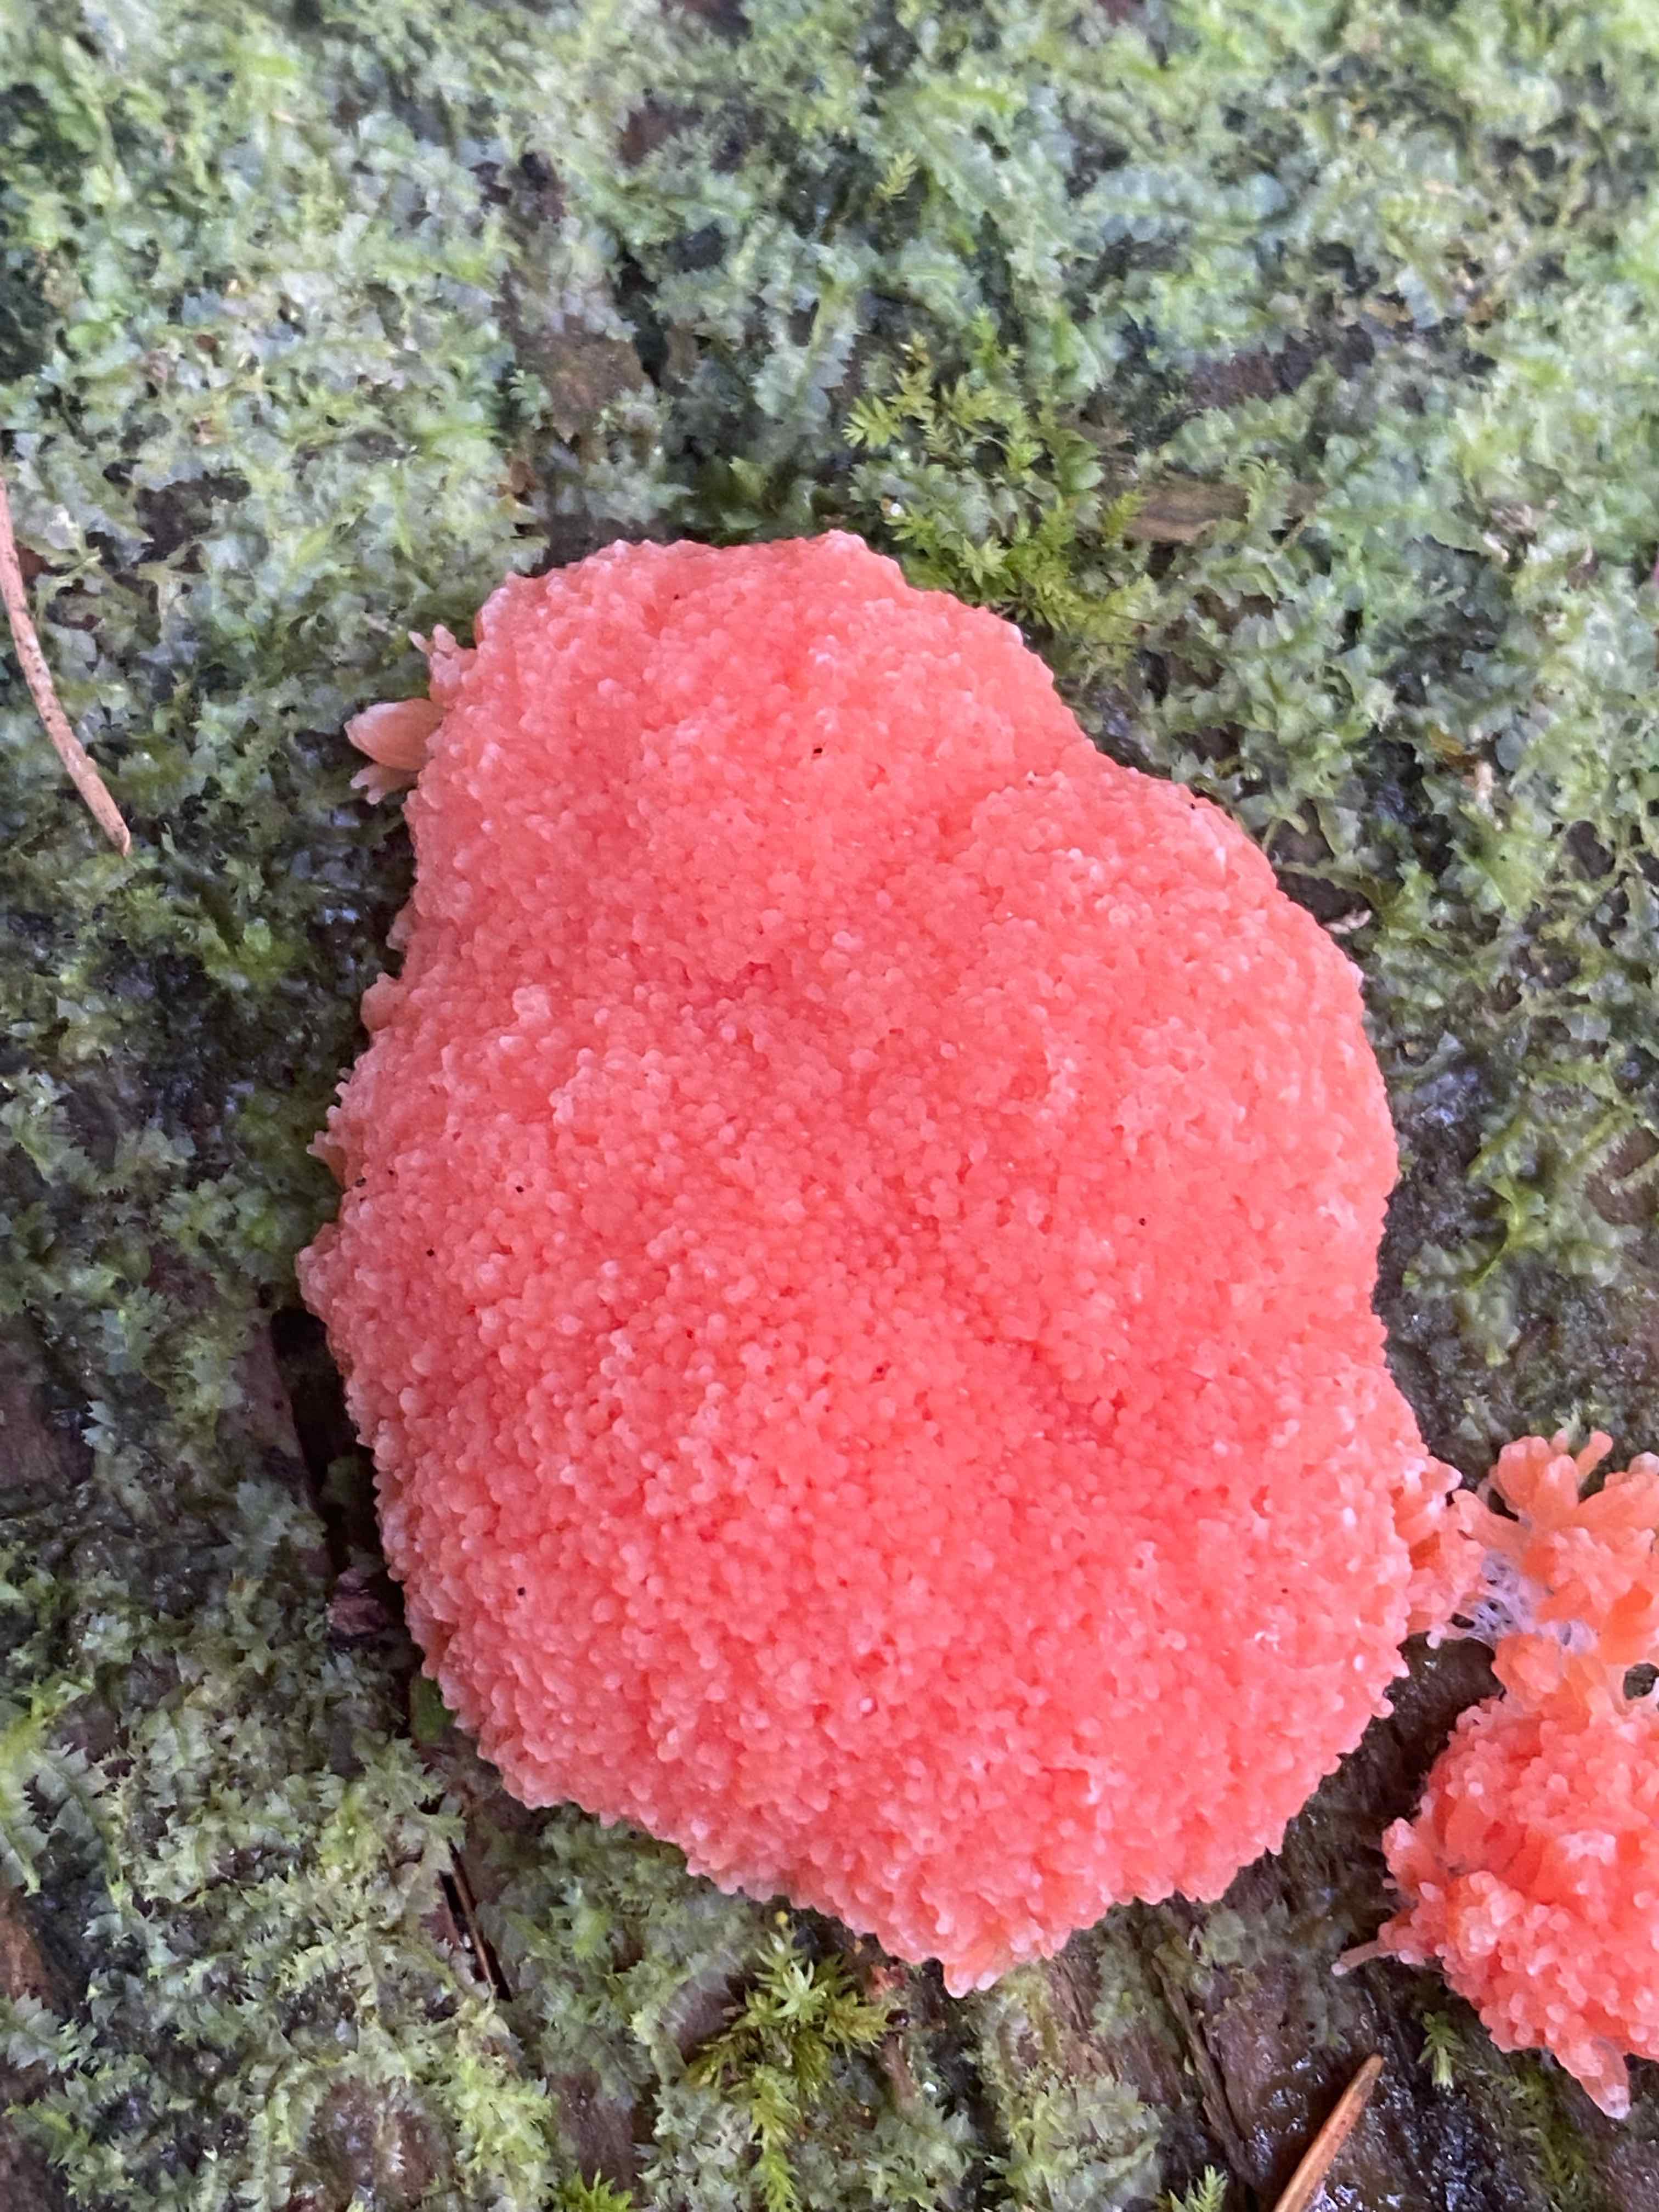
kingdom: Protozoa
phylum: Mycetozoa
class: Myxomycetes
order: Cribrariales
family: Tubiferaceae
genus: Tubifera
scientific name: Tubifera ferruginosa
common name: kanel-støvrør
